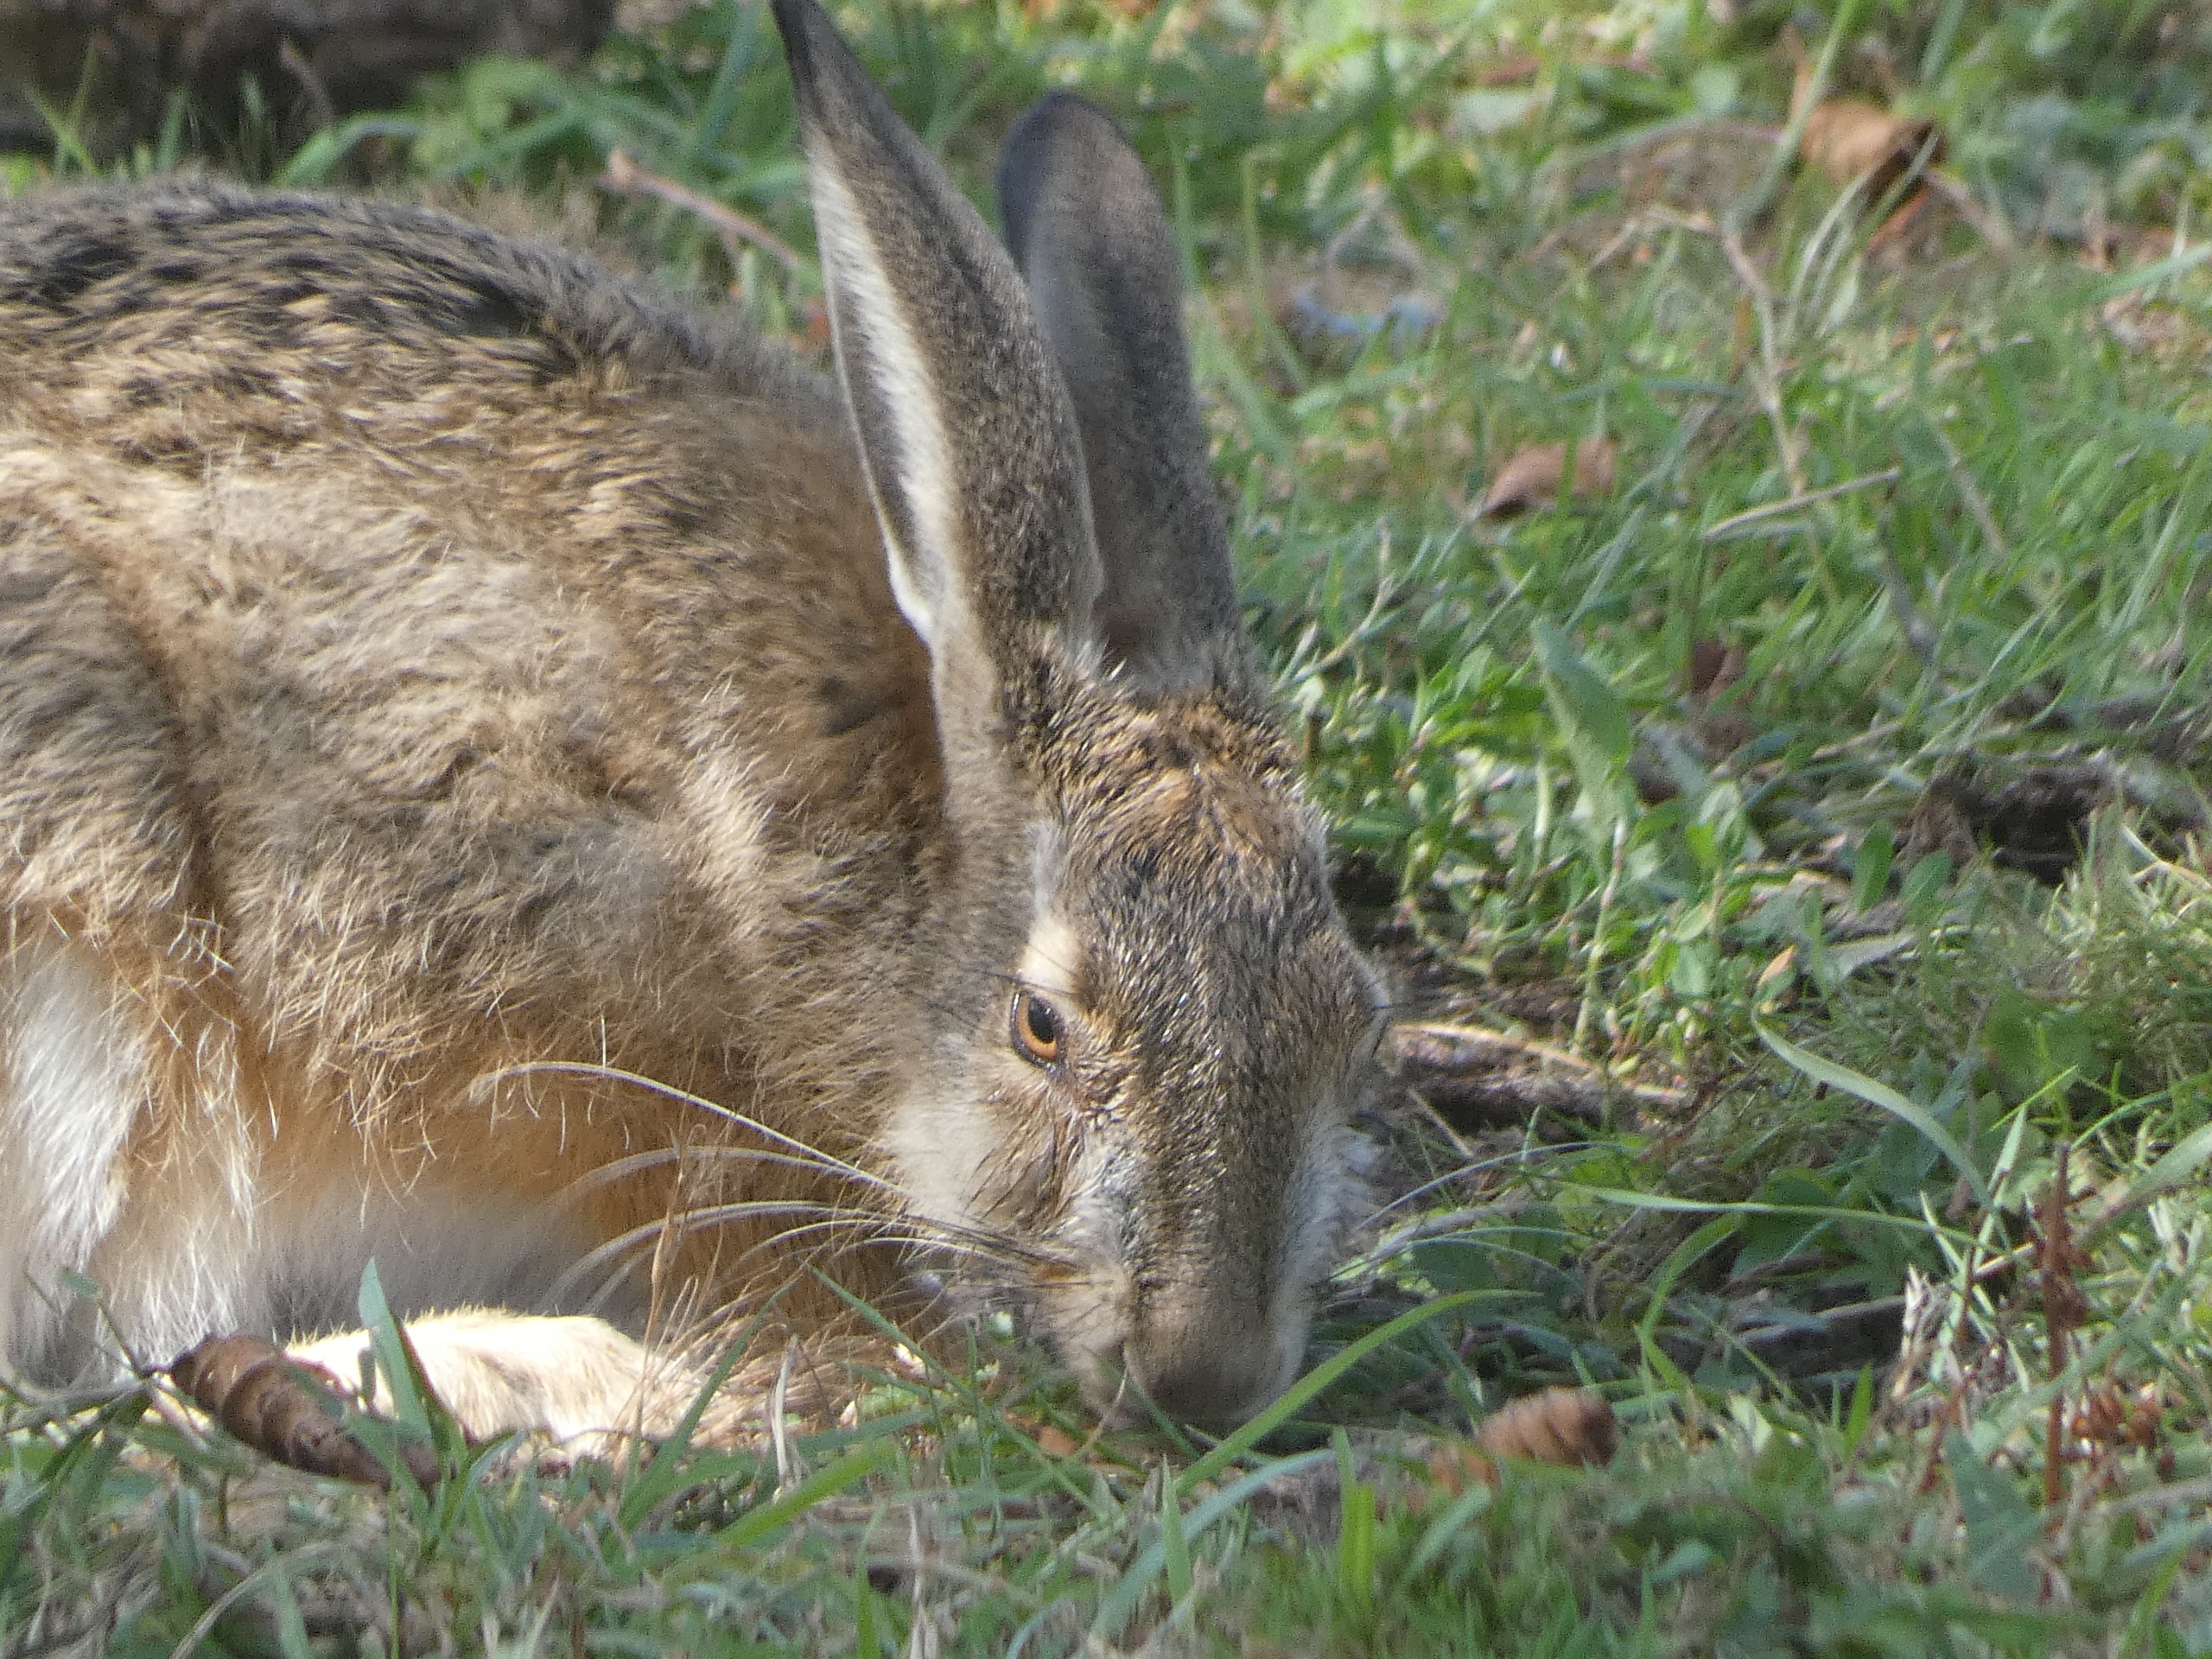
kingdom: Animalia
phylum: Chordata
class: Mammalia
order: Lagomorpha
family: Leporidae
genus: Lepus
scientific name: Lepus europaeus
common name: Hare
